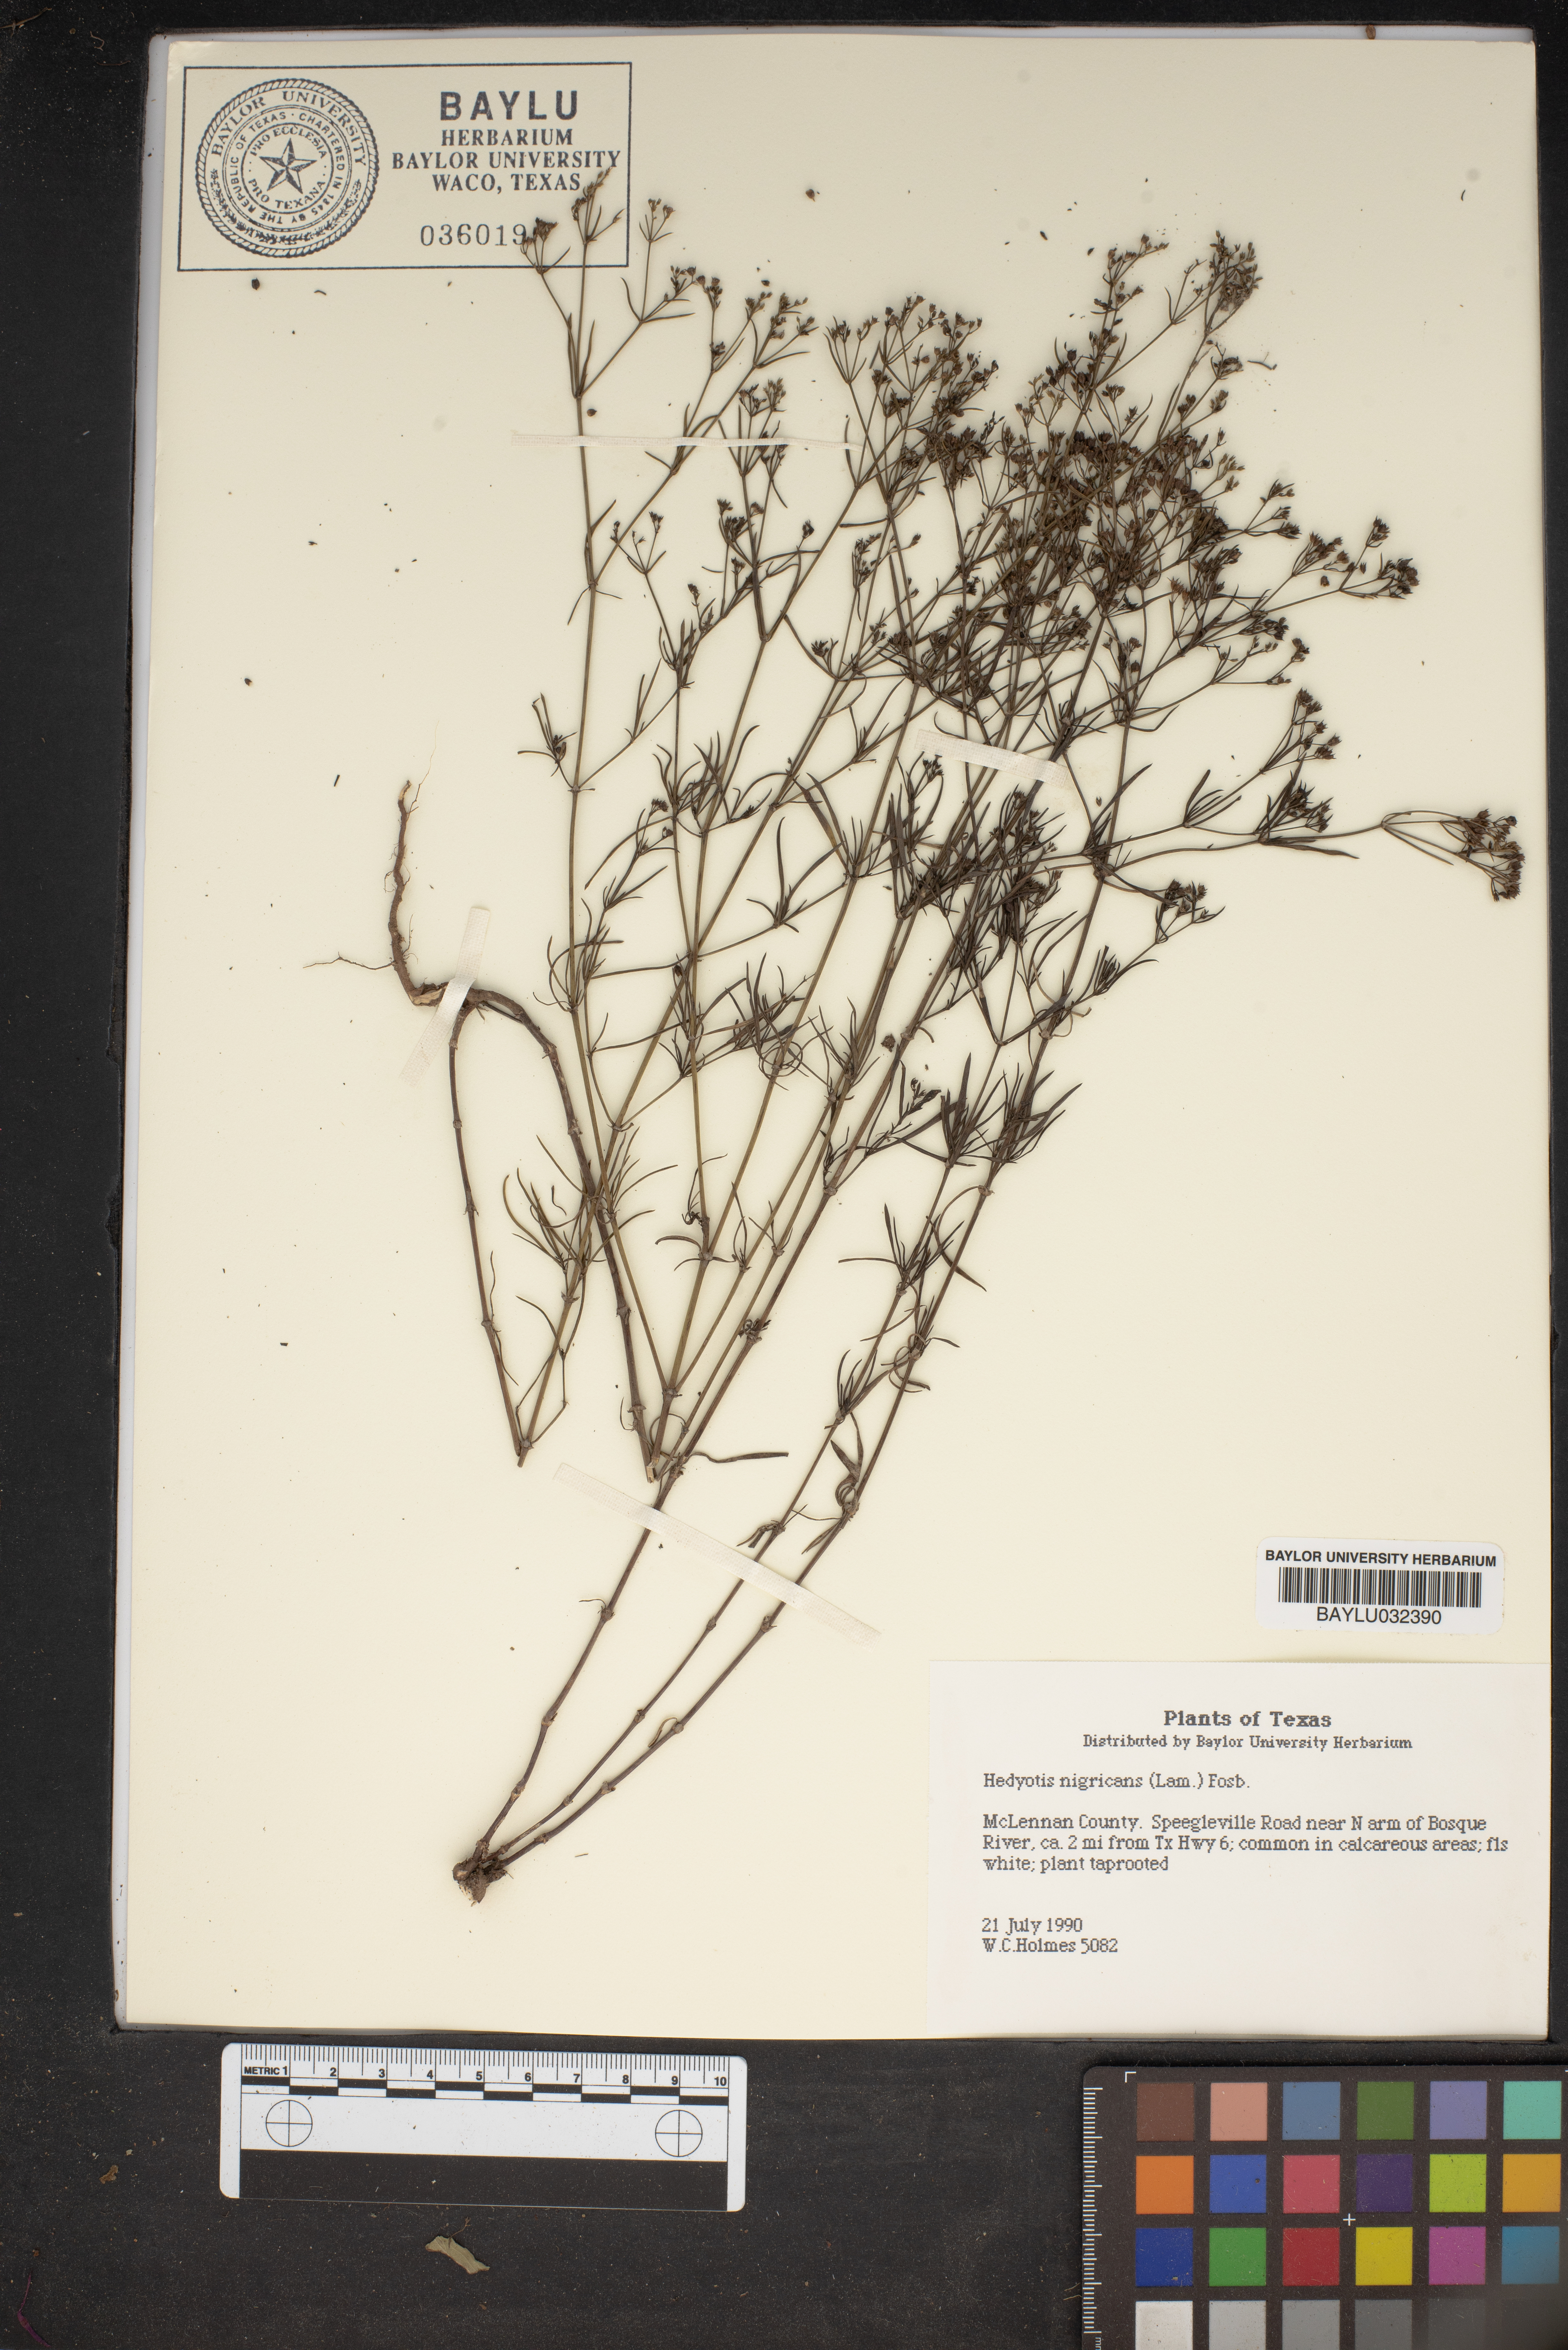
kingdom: Plantae
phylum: Tracheophyta
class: Magnoliopsida
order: Gentianales
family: Rubiaceae
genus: Stenaria
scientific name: Stenaria nigricans
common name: Diamondflowers
